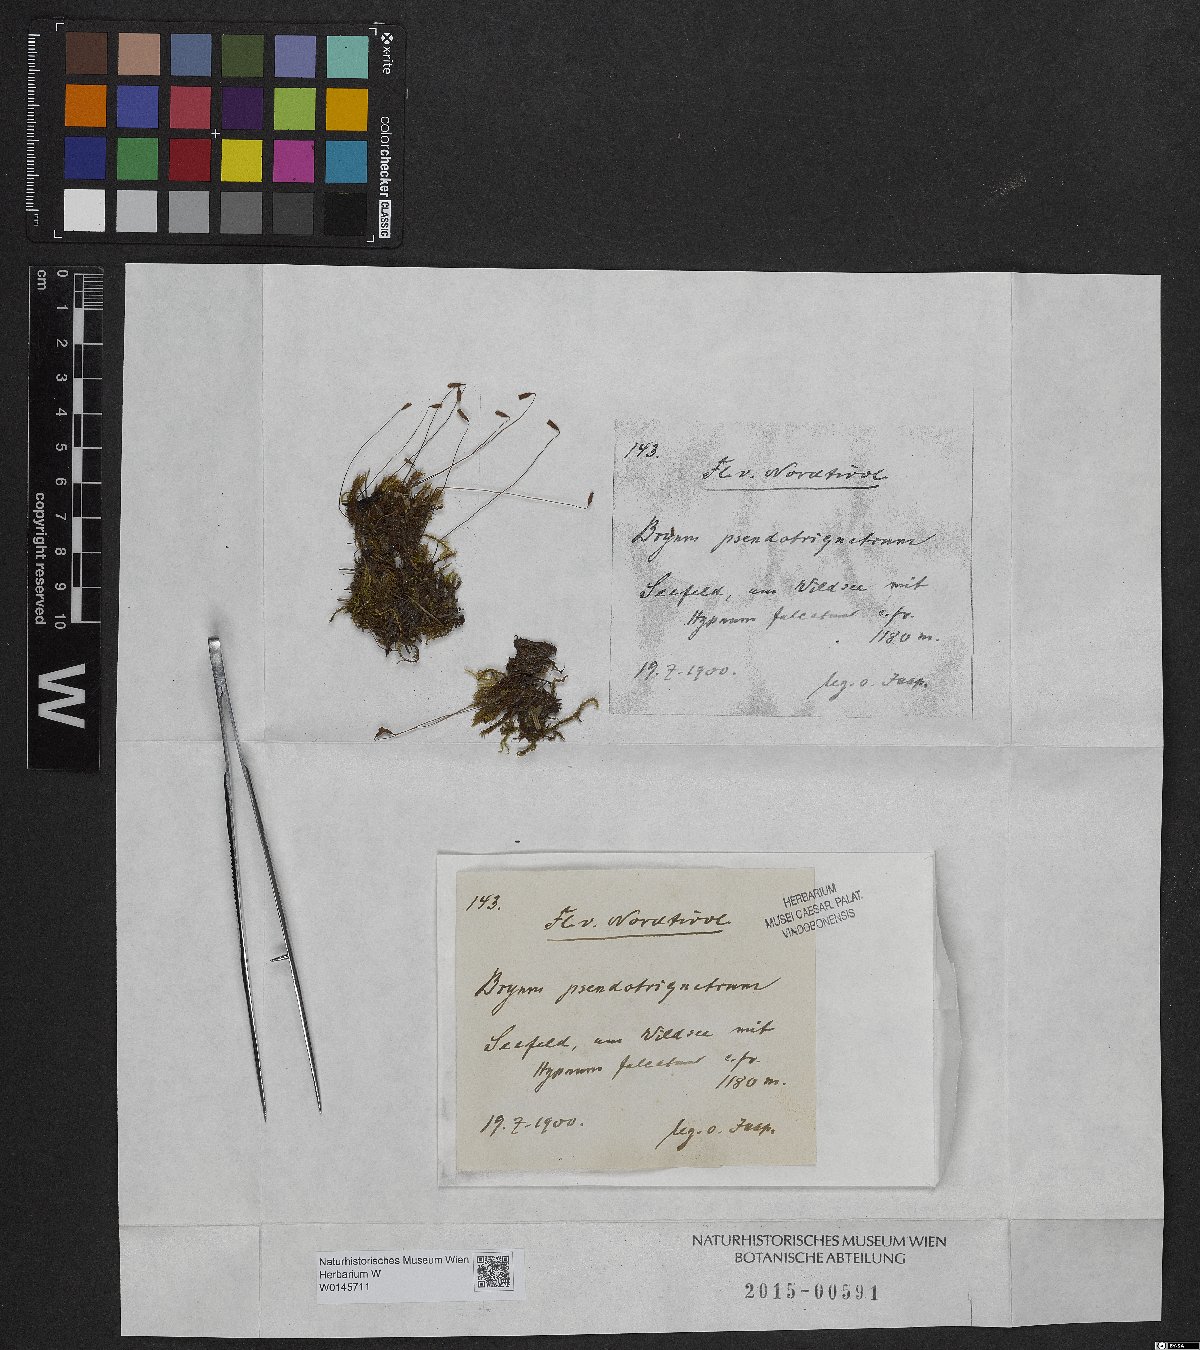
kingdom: Plantae
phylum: Bryophyta
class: Bryopsida
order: Bryales
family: Bryaceae
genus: Ptychostomum
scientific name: Ptychostomum pseudotriquetrum
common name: Long-leaved thread moss
